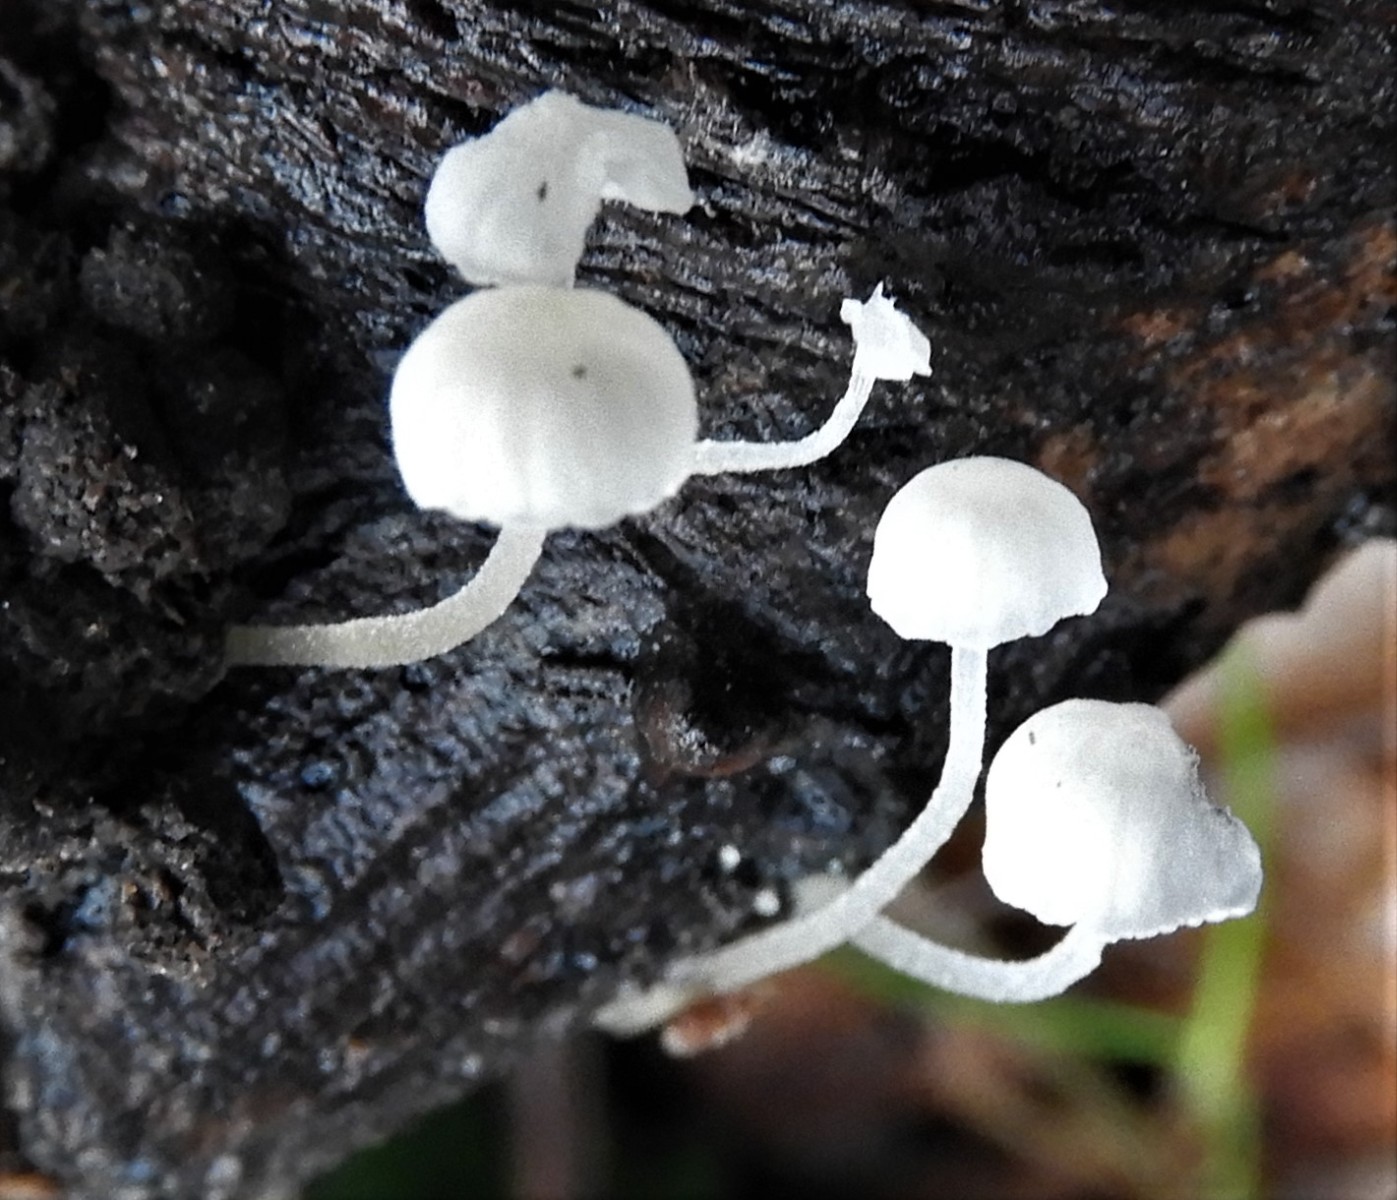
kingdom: Fungi
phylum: Basidiomycota
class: Agaricomycetes
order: Agaricales
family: Mycenaceae
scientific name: Mycenaceae
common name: huesvampfamilien
